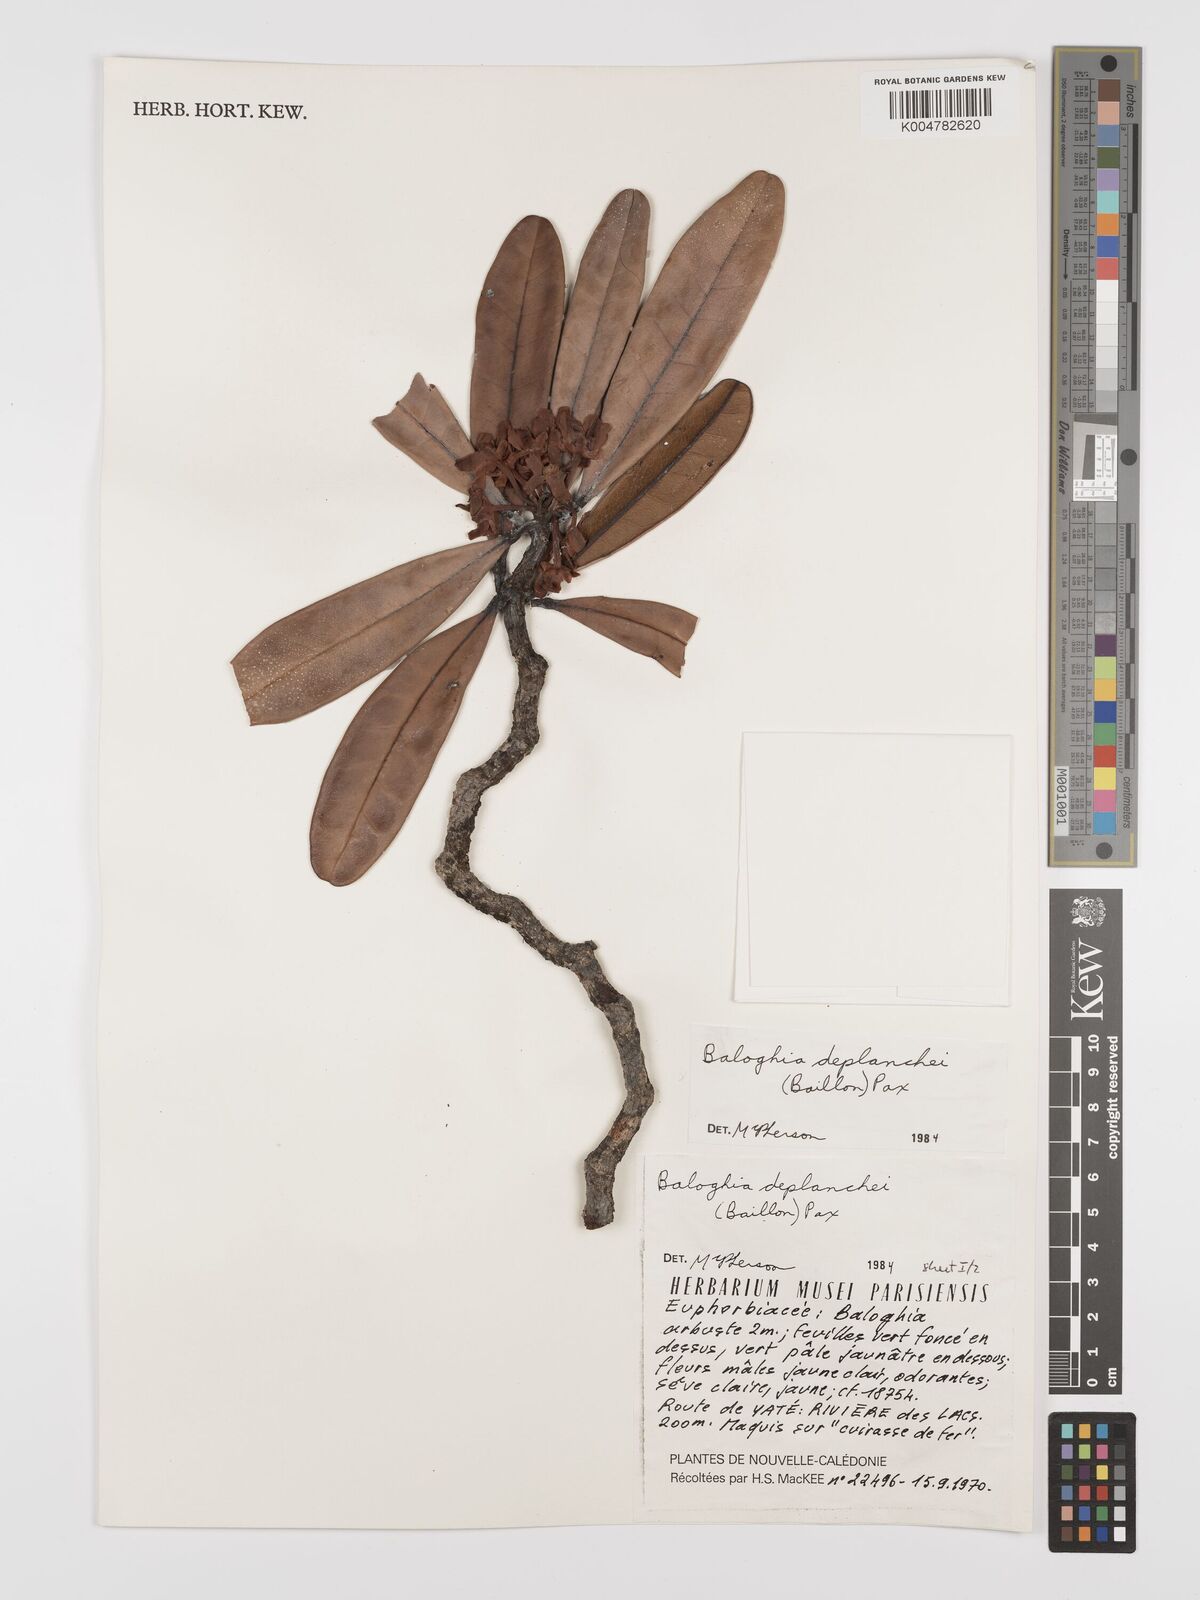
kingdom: Plantae
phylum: Tracheophyta
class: Magnoliopsida
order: Malpighiales
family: Euphorbiaceae
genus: Baloghia
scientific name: Baloghia deplanchei
